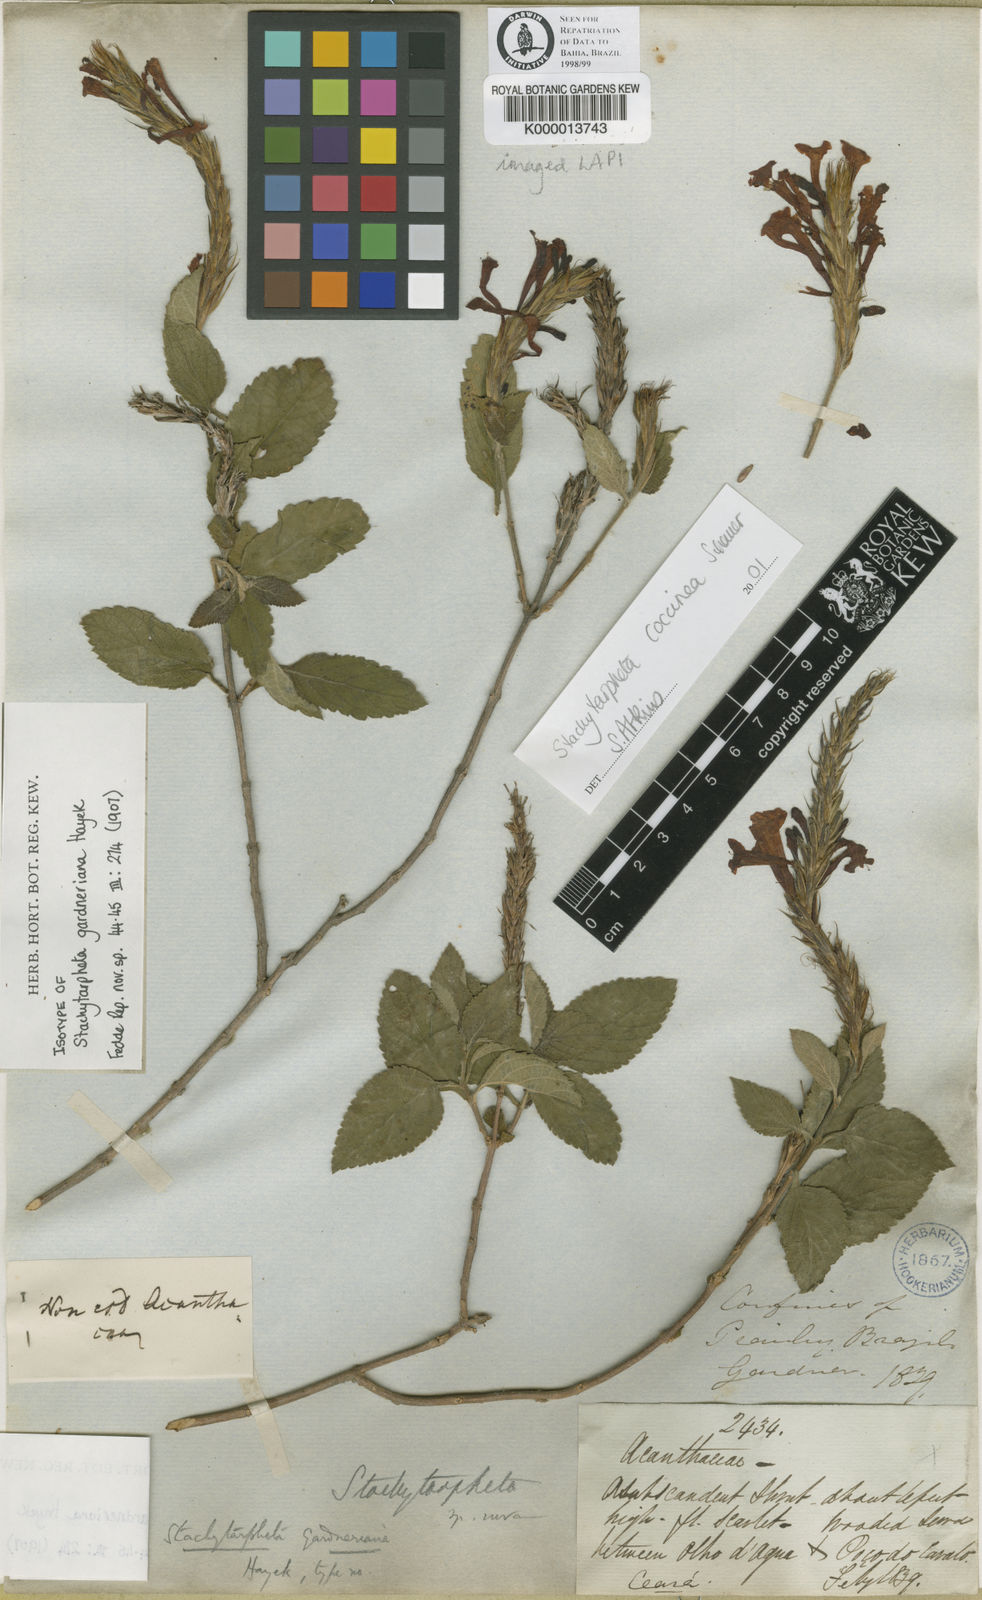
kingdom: Plantae
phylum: Tracheophyta
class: Magnoliopsida
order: Lamiales
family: Verbenaceae
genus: Stachytarpheta
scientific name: Stachytarpheta coccinea
